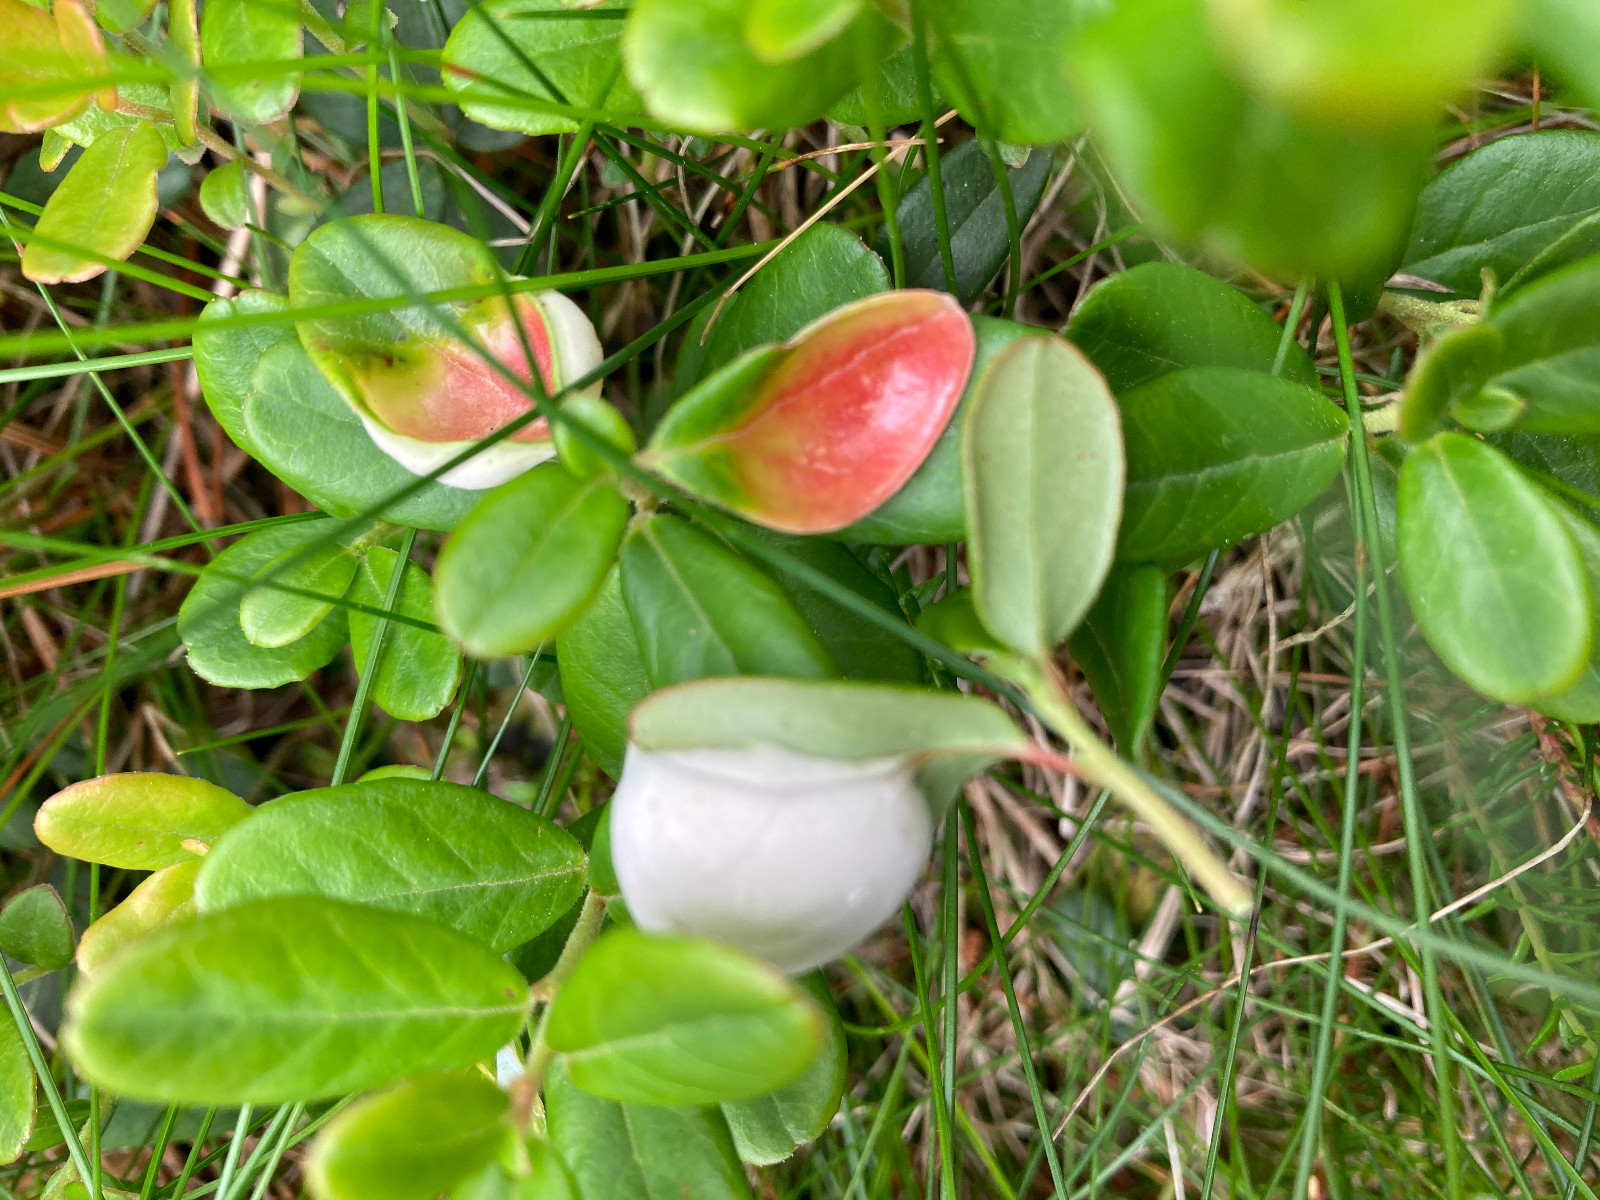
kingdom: Fungi
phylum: Basidiomycota
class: Exobasidiomycetes
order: Exobasidiales
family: Exobasidiaceae
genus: Exobasidium
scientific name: Exobasidium vaccinii
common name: tyttebærblad-bøllesvamp
